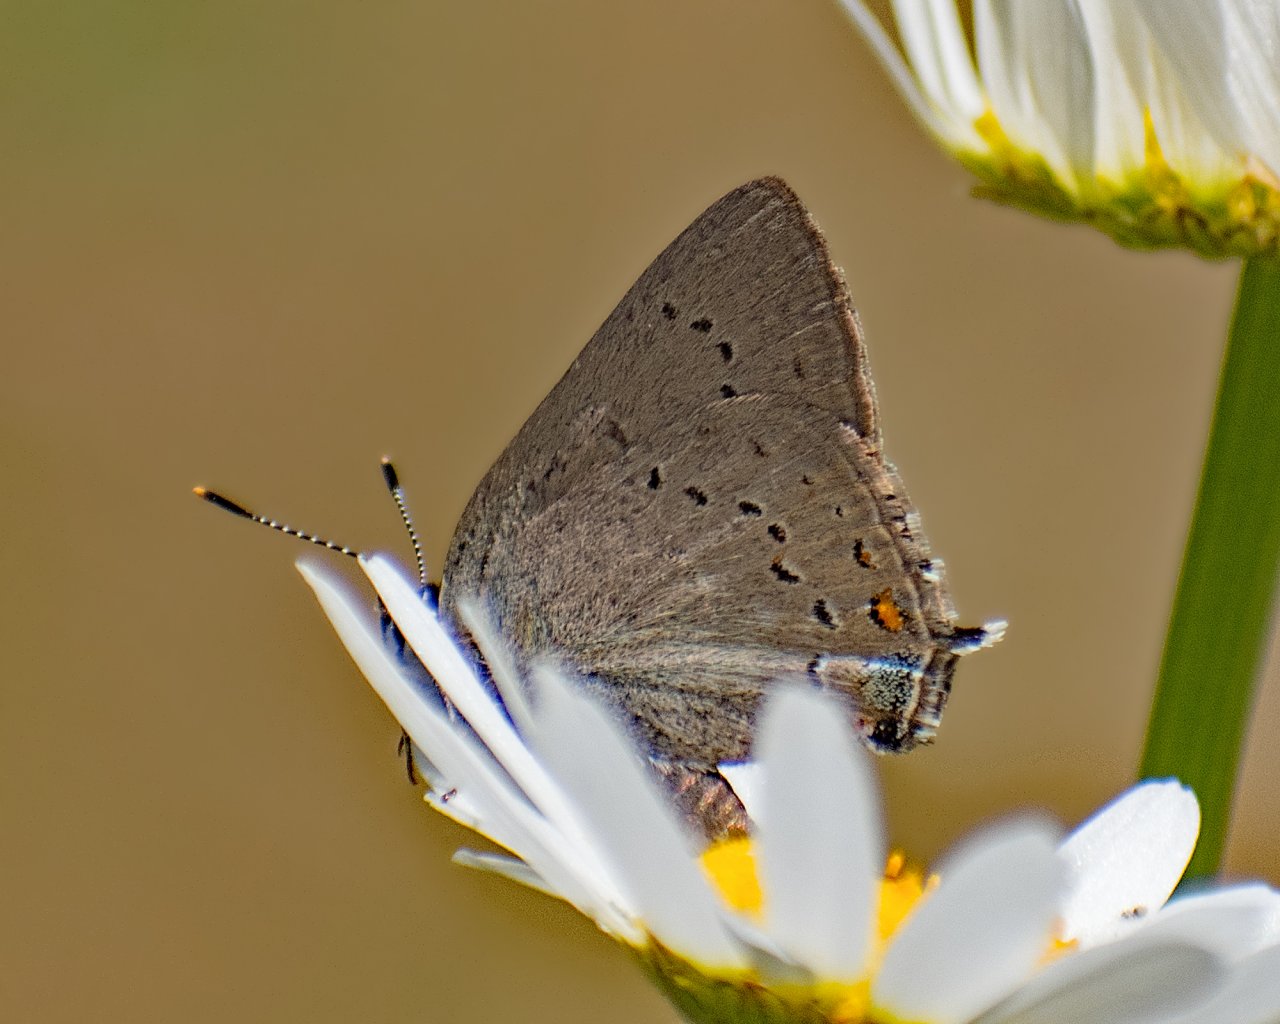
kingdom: Animalia
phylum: Arthropoda
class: Insecta
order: Lepidoptera
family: Lycaenidae
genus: Strymon
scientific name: Strymon sylvinus
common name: Sylvan Hairstreak
